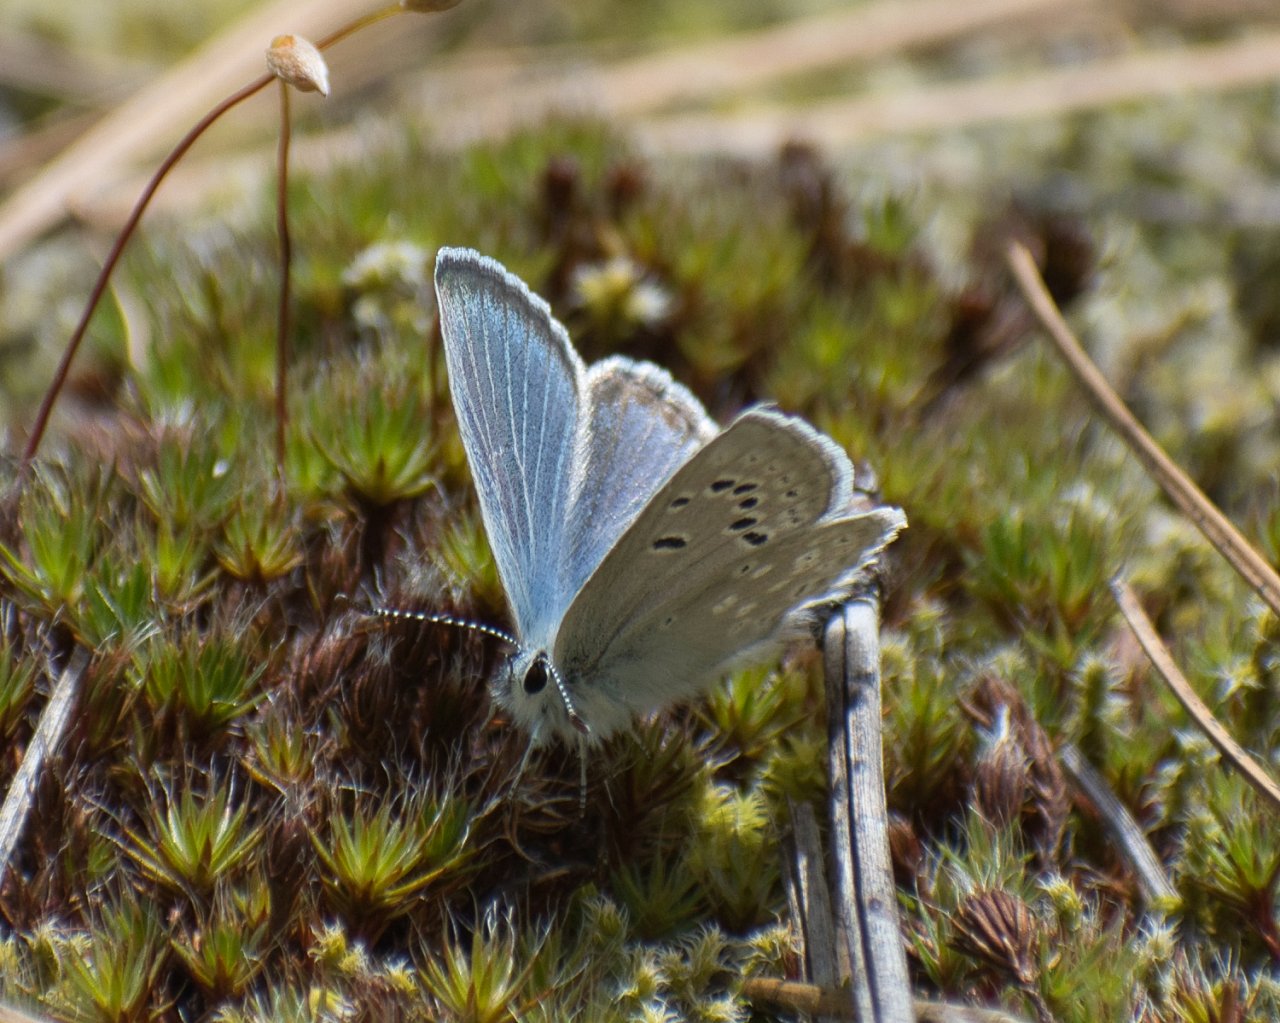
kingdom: Animalia
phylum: Arthropoda
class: Insecta
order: Lepidoptera
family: Lycaenidae
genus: Icaricia
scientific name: Icaricia icarioides
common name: Boisduval's Blue
